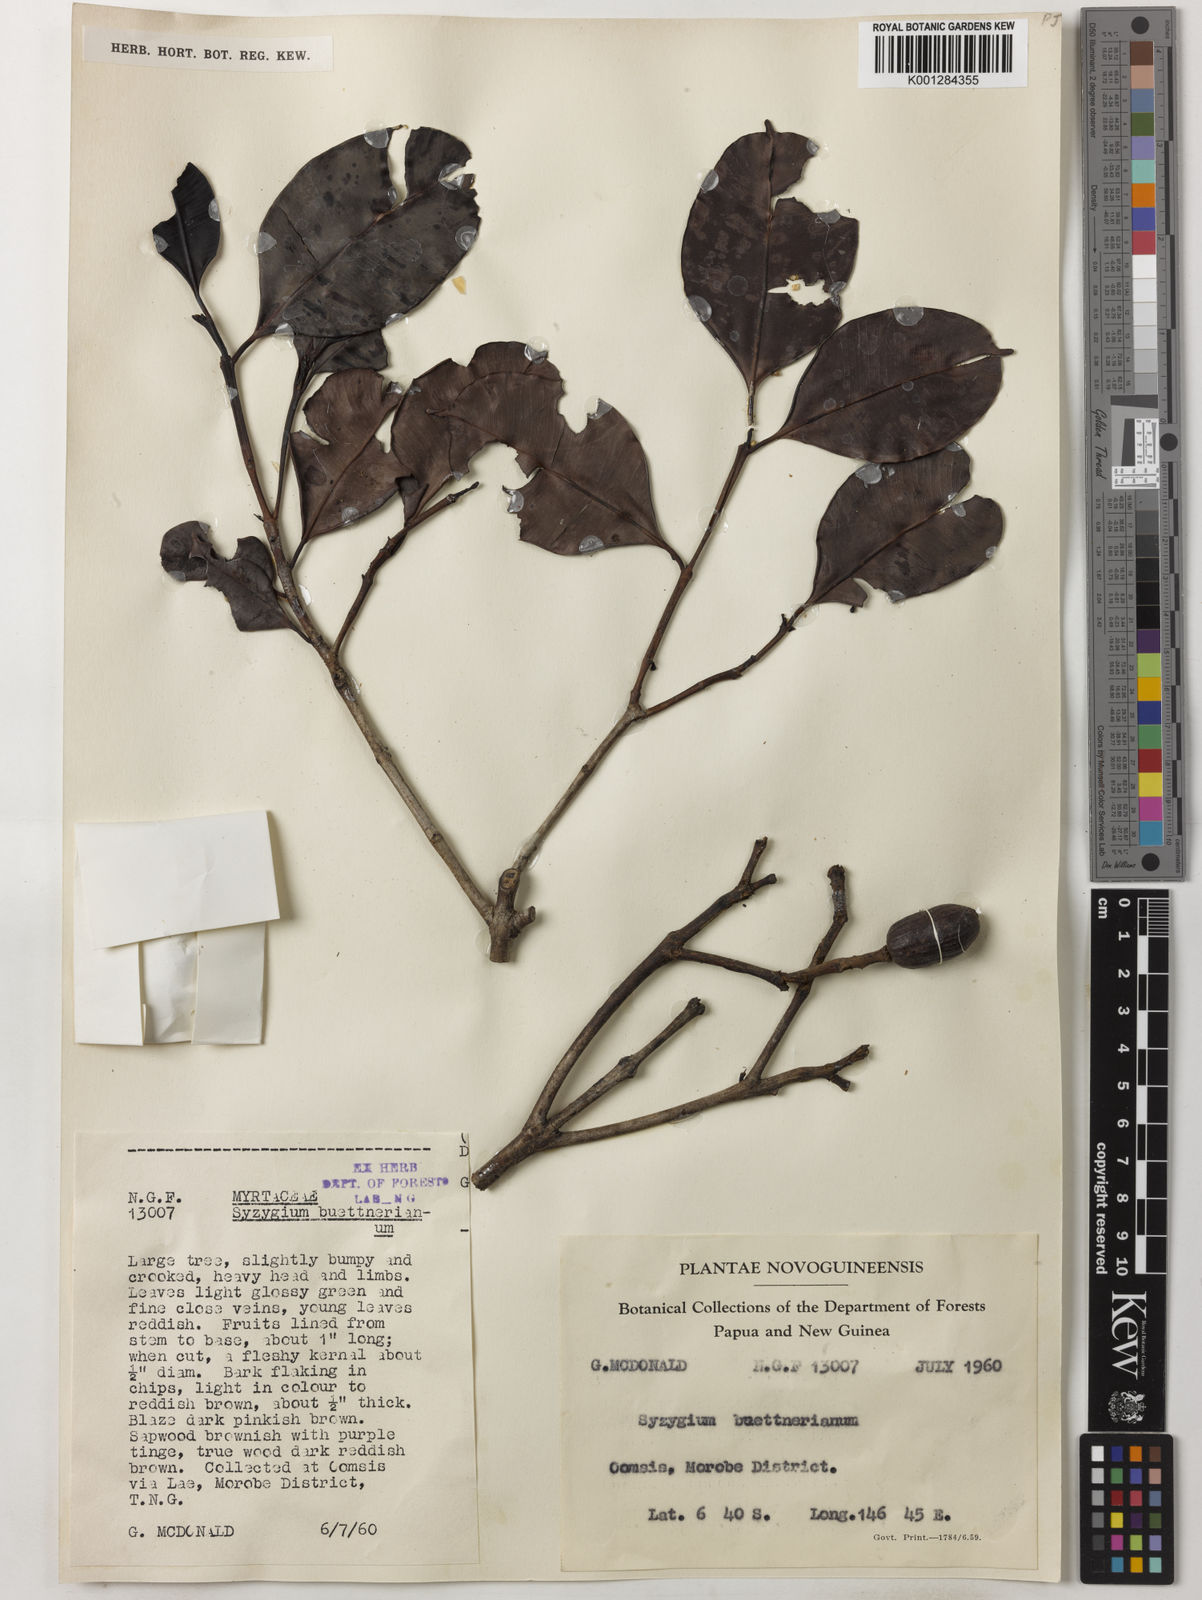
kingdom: Plantae
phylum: Tracheophyta
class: Magnoliopsida
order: Myrtales
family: Myrtaceae
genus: Syzygium
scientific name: Syzygium buettnerianum
